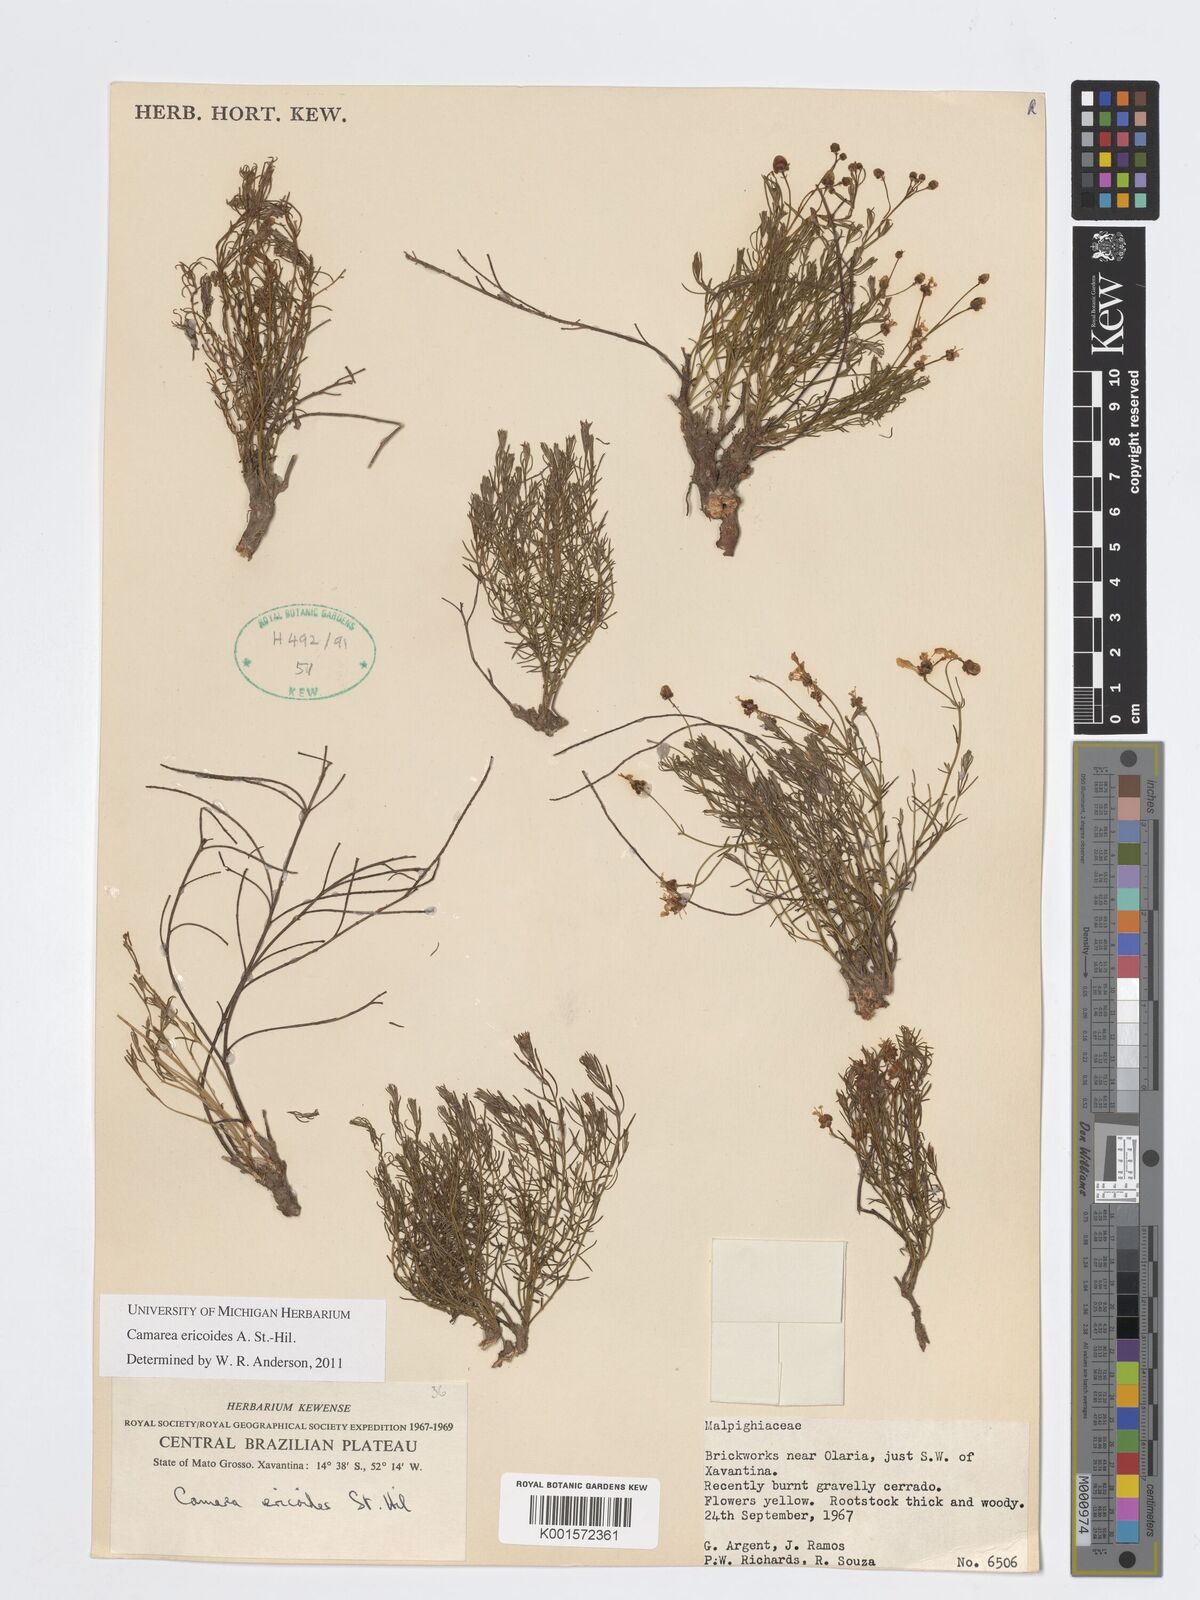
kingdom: Plantae
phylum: Tracheophyta
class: Magnoliopsida
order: Malpighiales
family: Malpighiaceae
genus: Camarea
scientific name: Camarea ericoides
